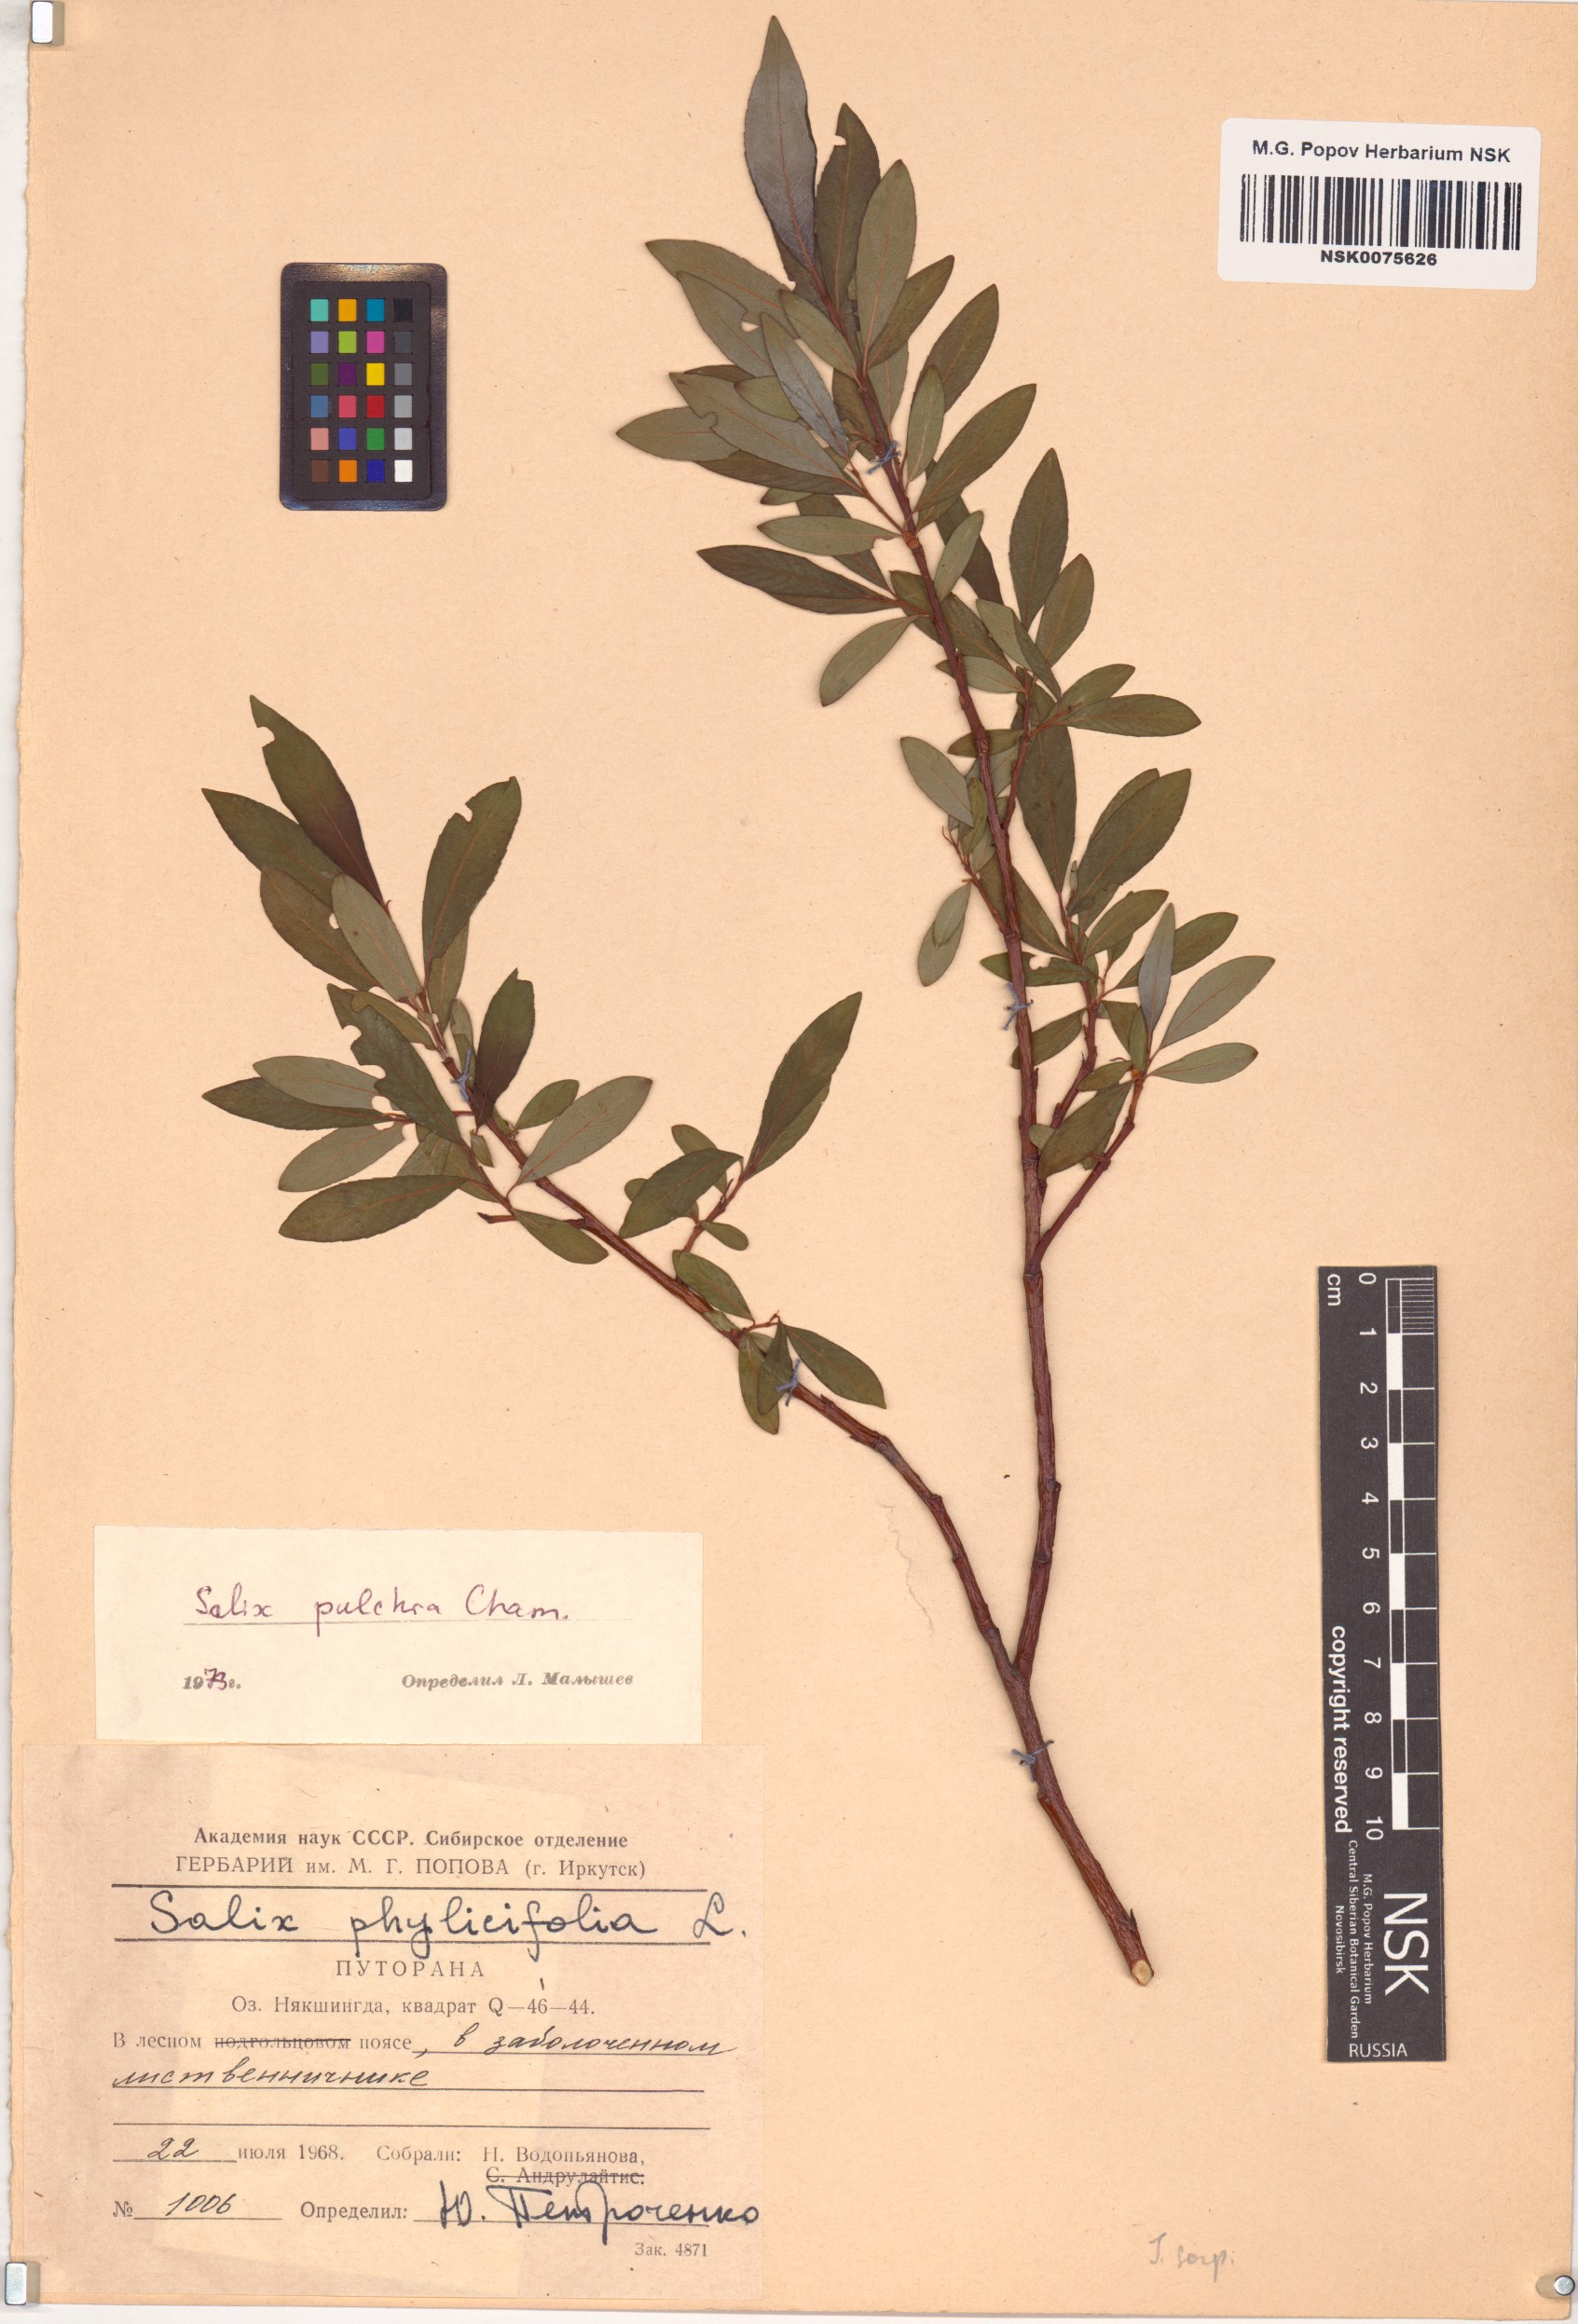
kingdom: Plantae
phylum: Tracheophyta
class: Magnoliopsida
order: Malpighiales
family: Salicaceae
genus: Salix
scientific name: Salix pulchra
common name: Diamond-leaved willow
